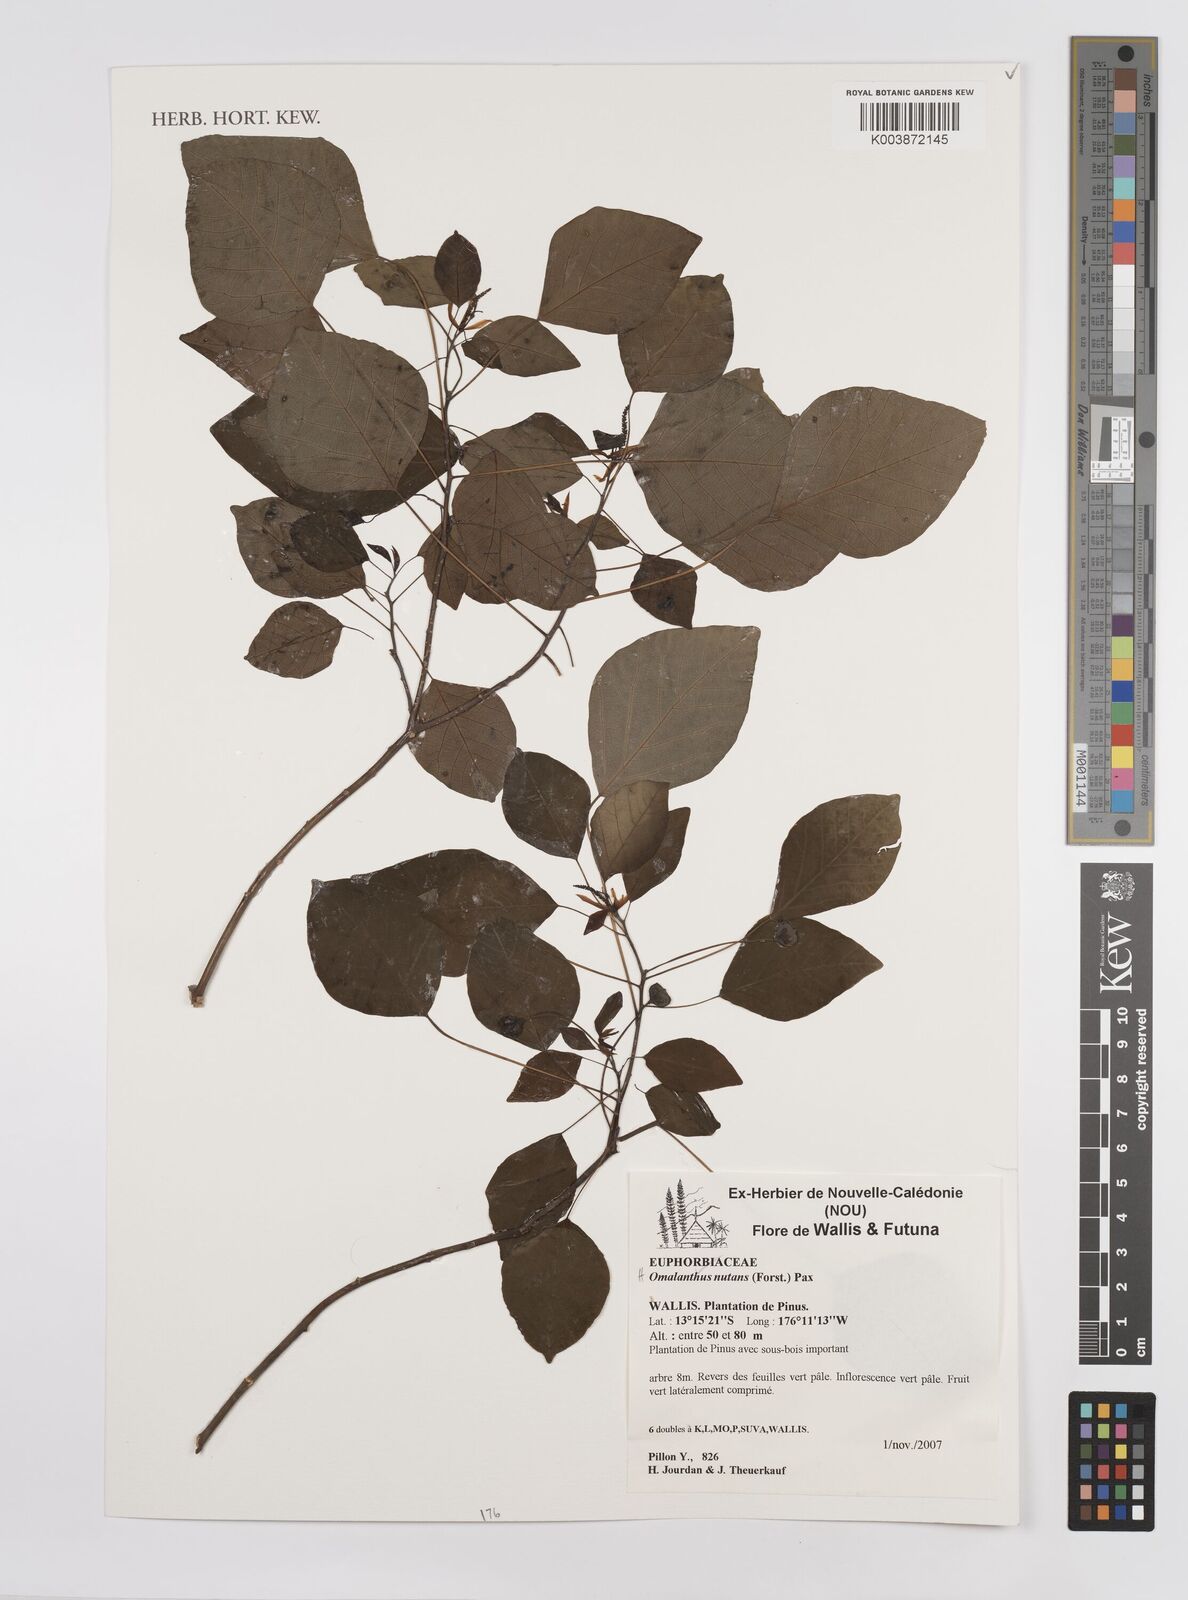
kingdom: Plantae
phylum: Tracheophyta
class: Magnoliopsida
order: Malpighiales
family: Euphorbiaceae
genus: Homalanthus
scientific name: Homalanthus nutans
